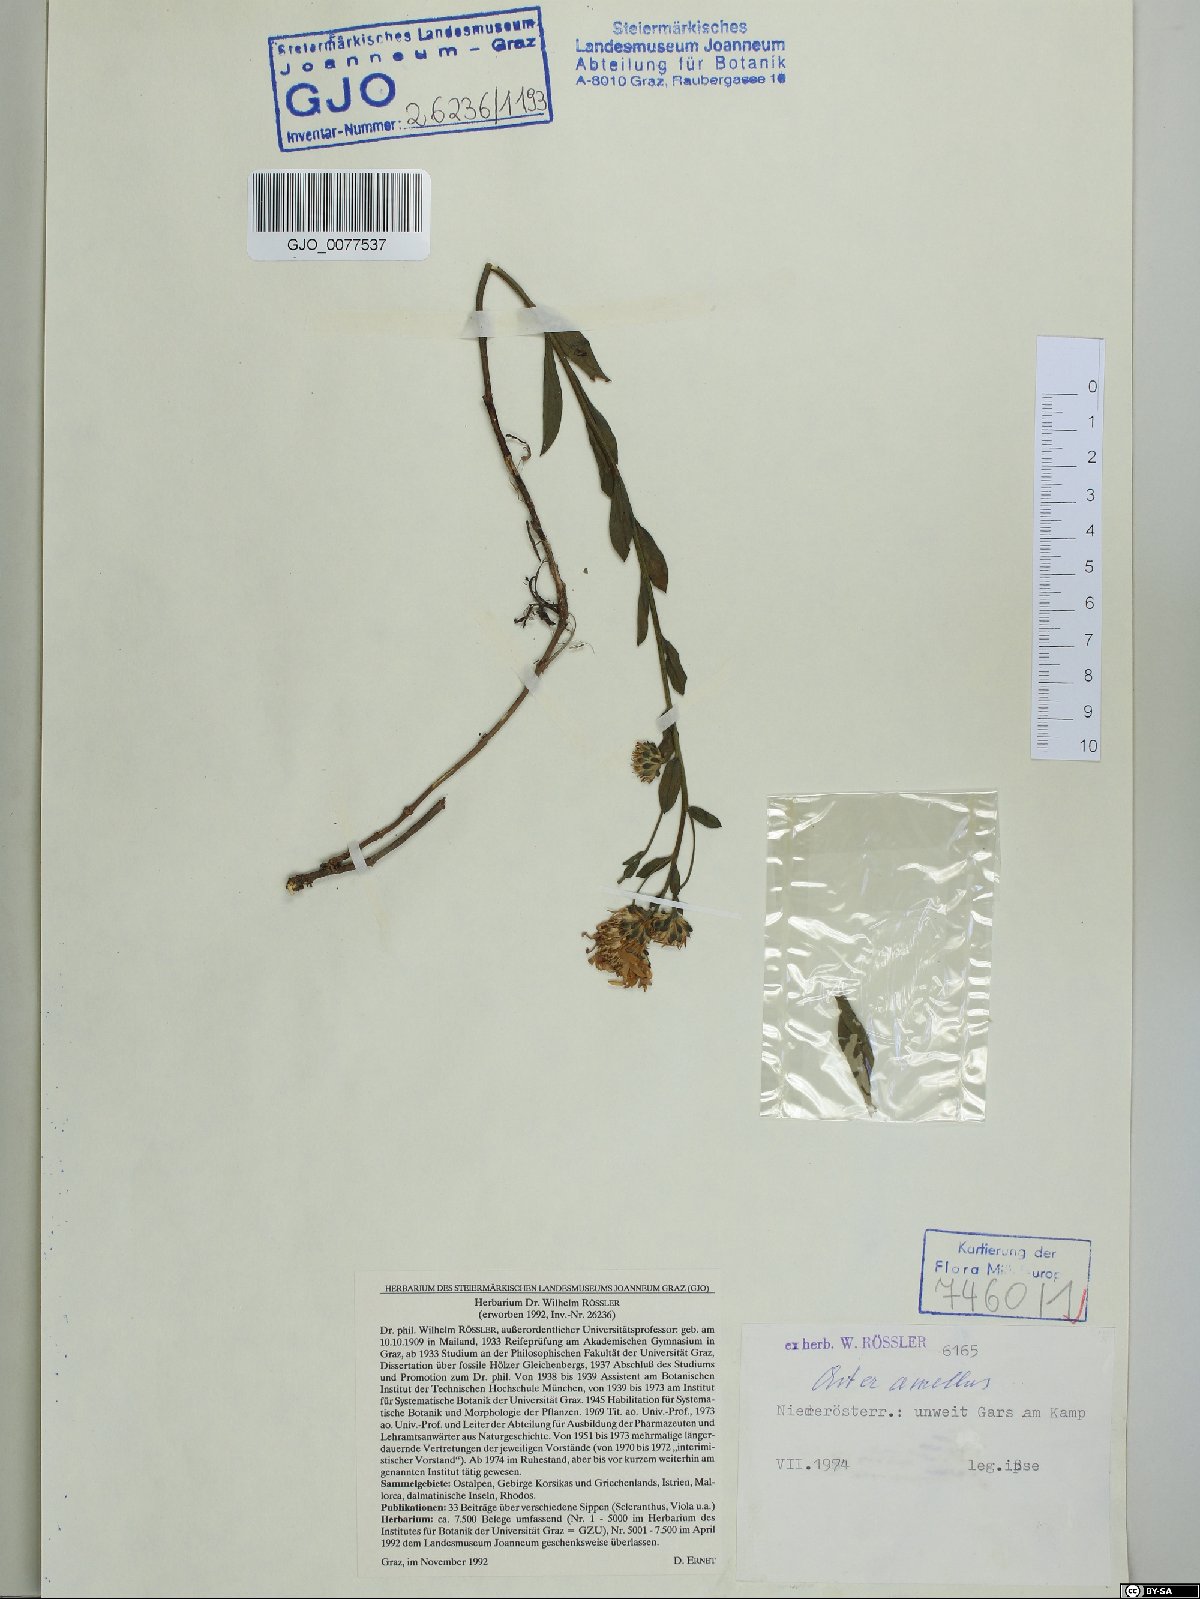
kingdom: Plantae
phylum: Tracheophyta
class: Magnoliopsida
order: Asterales
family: Asteraceae
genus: Aster
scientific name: Aster amellus
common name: European michaelmas daisy
